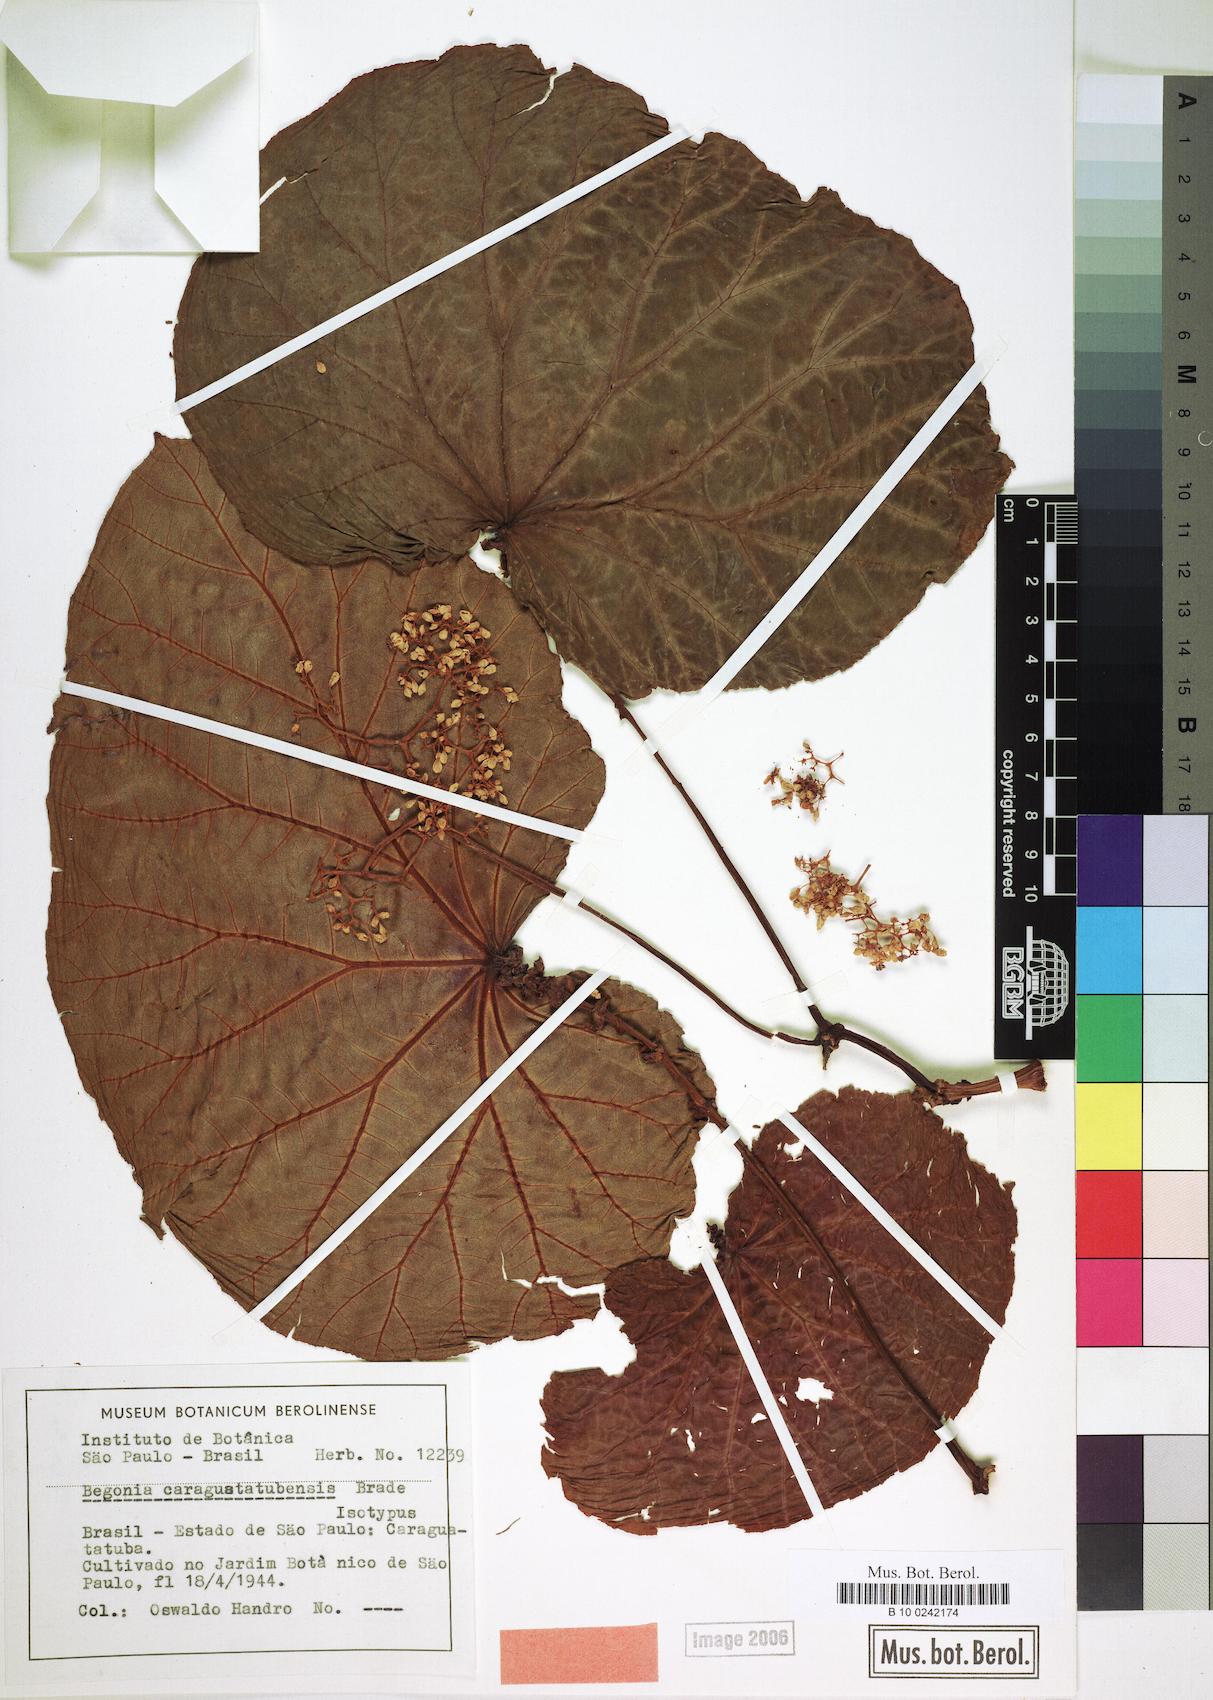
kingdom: Plantae
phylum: Tracheophyta
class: Magnoliopsida
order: Cucurbitales
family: Begoniaceae
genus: Begonia
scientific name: Begonia caraguatatubensis
